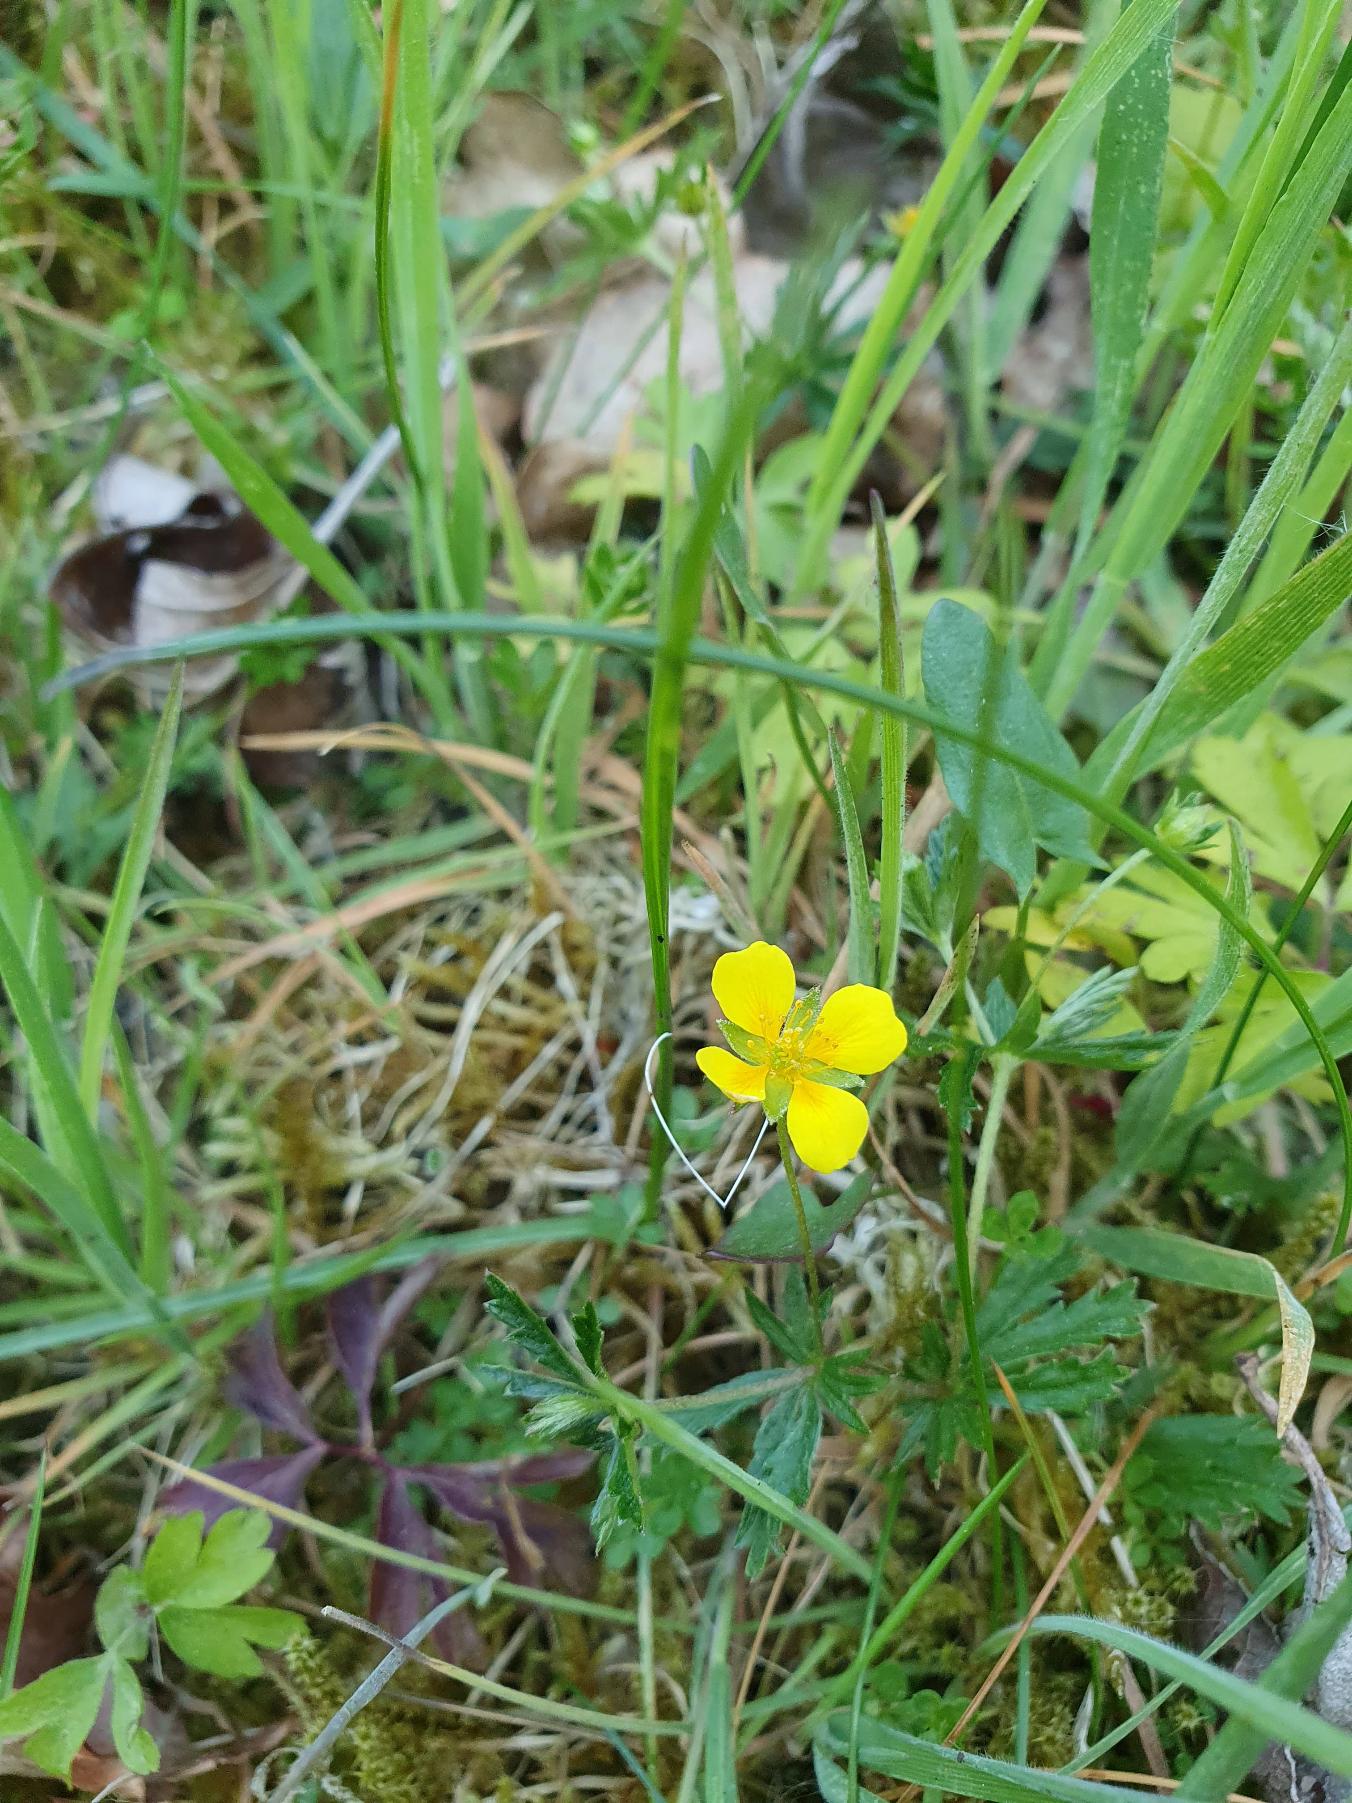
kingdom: Plantae
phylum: Tracheophyta
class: Magnoliopsida
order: Rosales
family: Rosaceae
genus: Potentilla
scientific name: Potentilla erecta
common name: Tormentil
